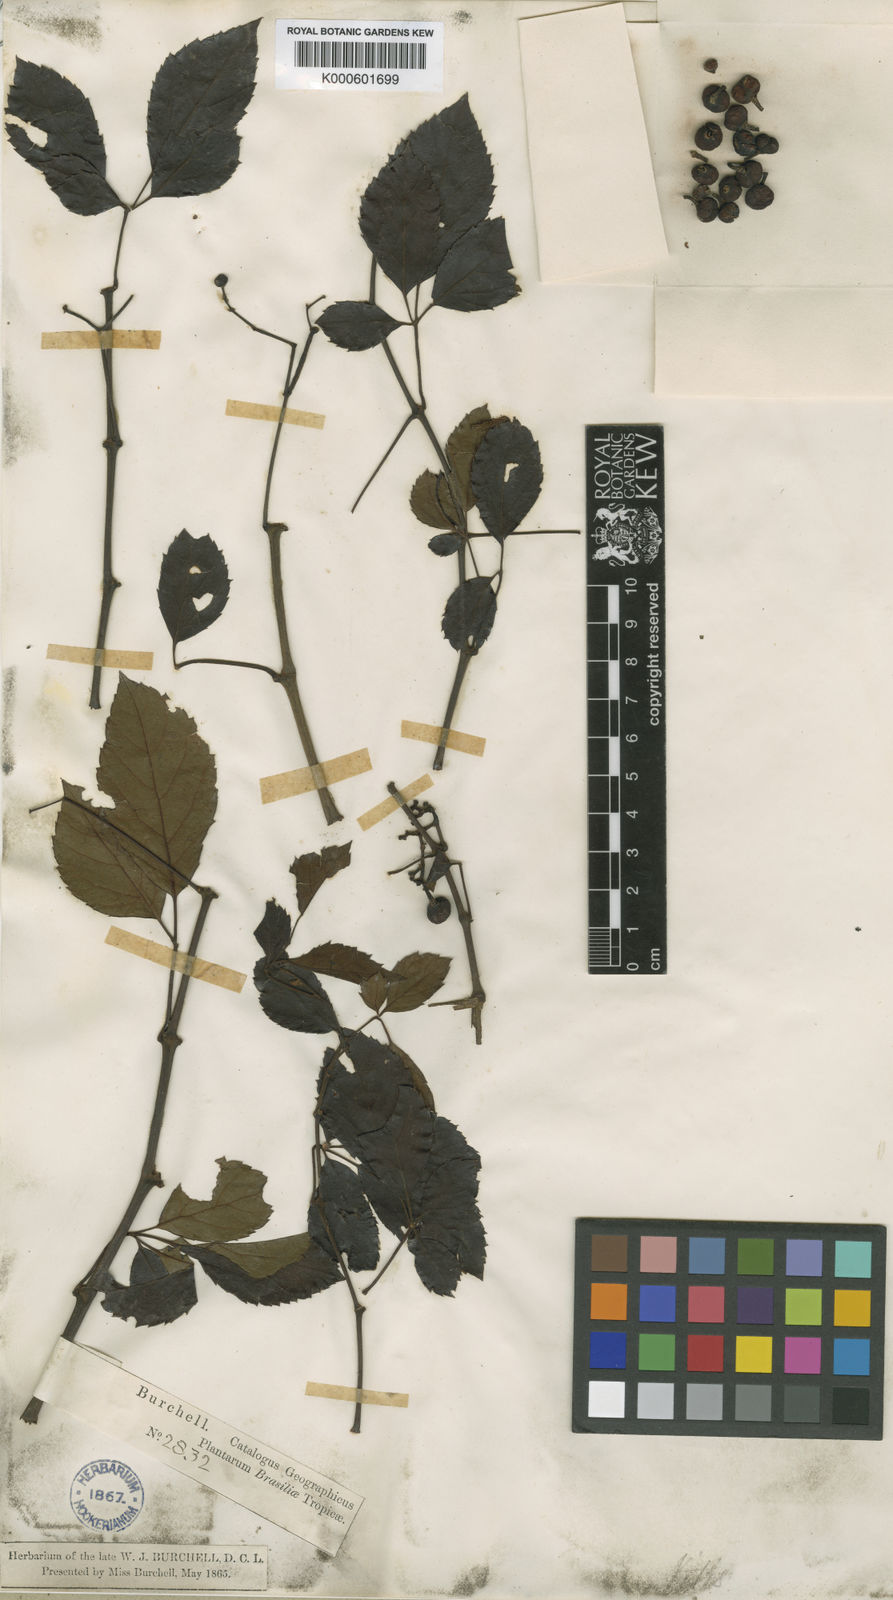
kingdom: Plantae
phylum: Tracheophyta
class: Magnoliopsida
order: Vitales
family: Vitaceae
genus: Clematicissus
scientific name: Clematicissus simsiana
